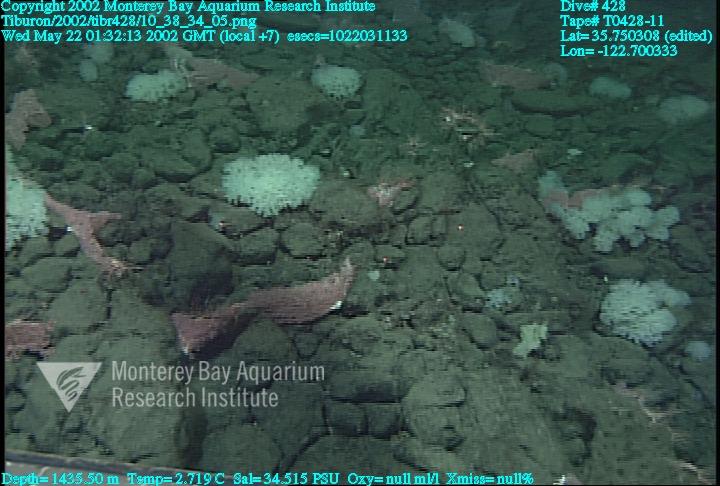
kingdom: Animalia
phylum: Porifera
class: Hexactinellida
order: Sceptrulophora
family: Farreidae
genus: Farrea
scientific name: Farrea occa
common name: Reversed glass sponge
